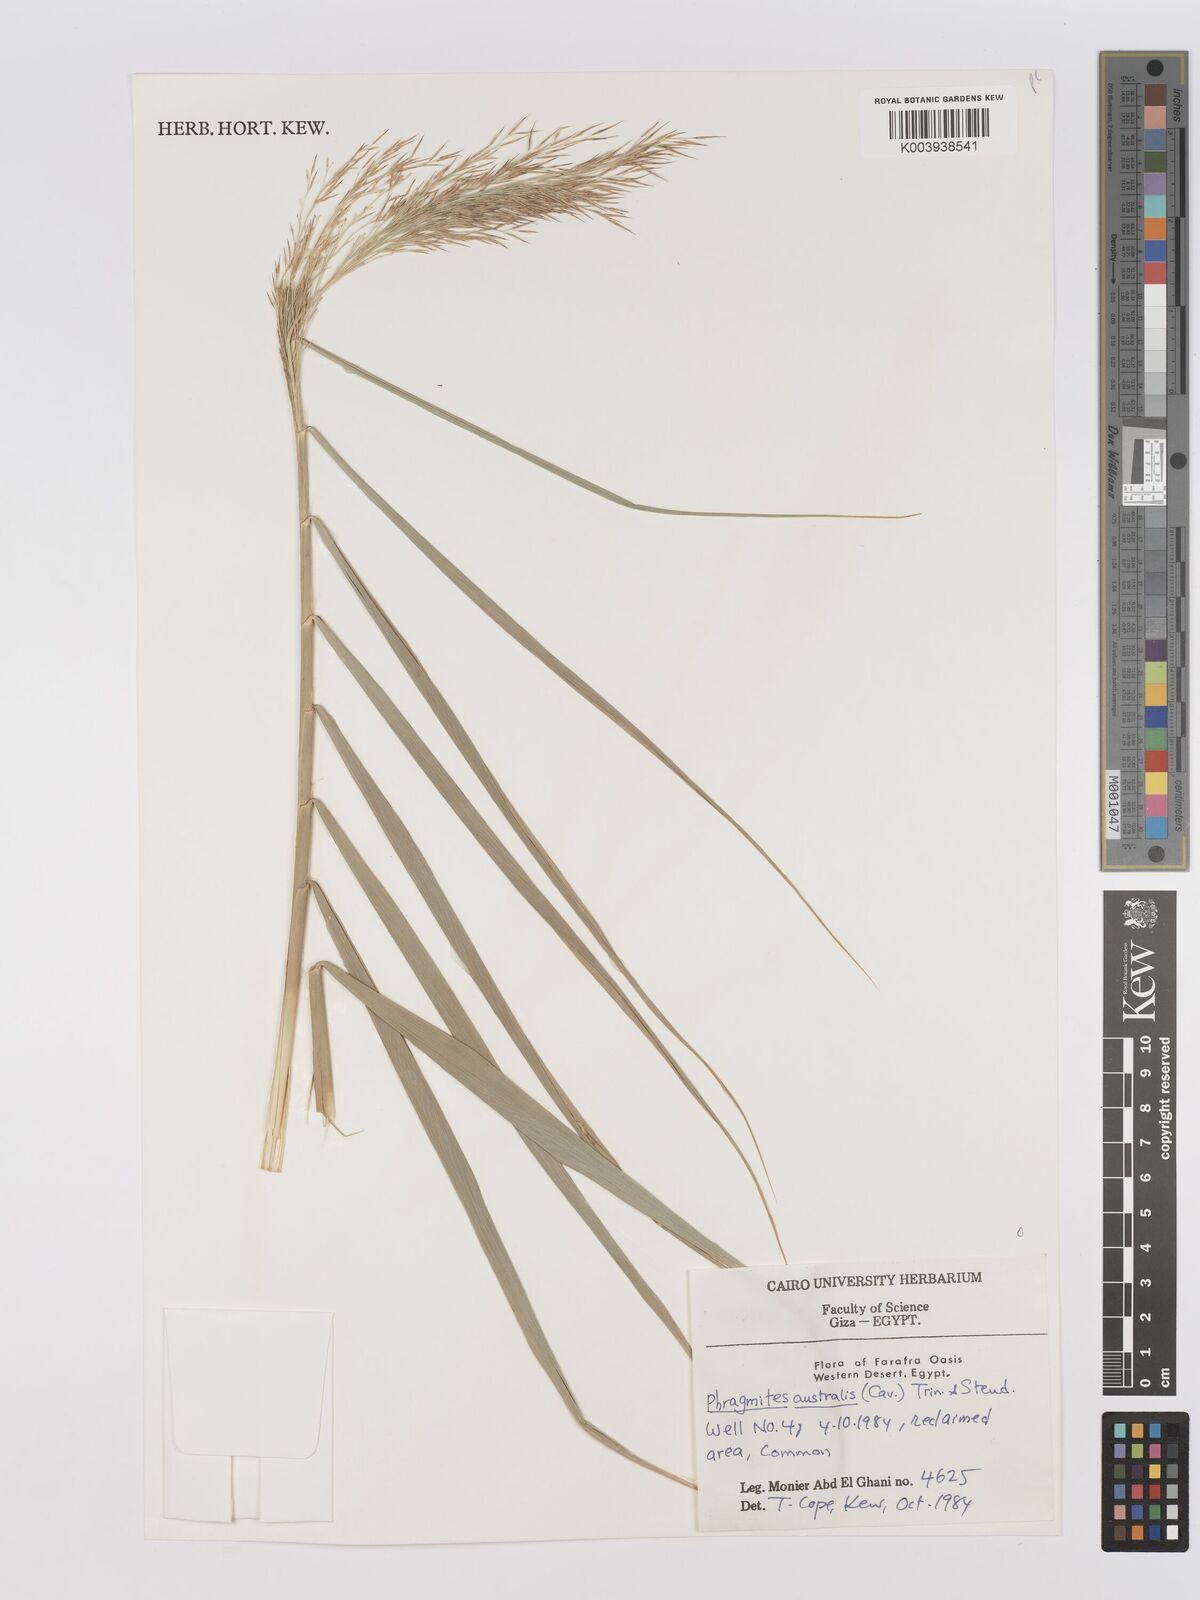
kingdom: Plantae
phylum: Tracheophyta
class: Liliopsida
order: Poales
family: Poaceae
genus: Phragmites
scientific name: Phragmites australis
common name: Common reed
